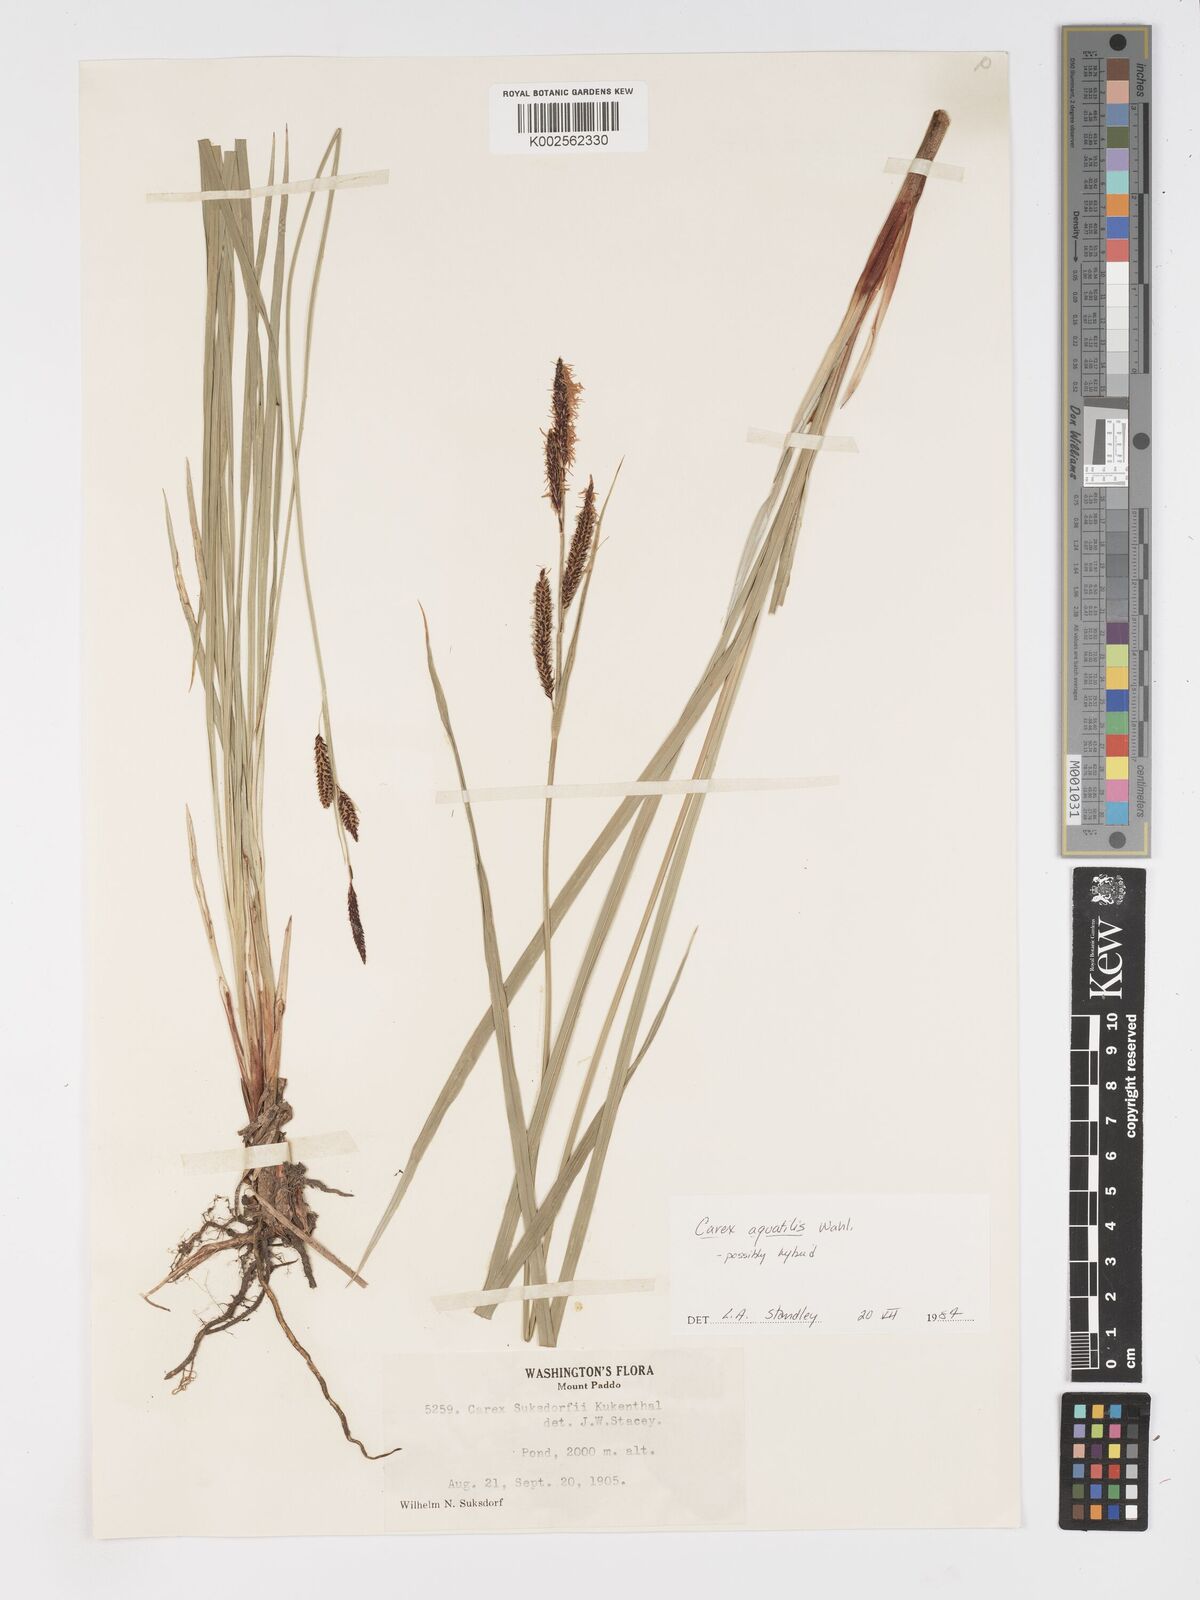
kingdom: Plantae
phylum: Tracheophyta
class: Liliopsida
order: Poales
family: Cyperaceae
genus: Carex
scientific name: Carex aquatilis
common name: Water sedge
